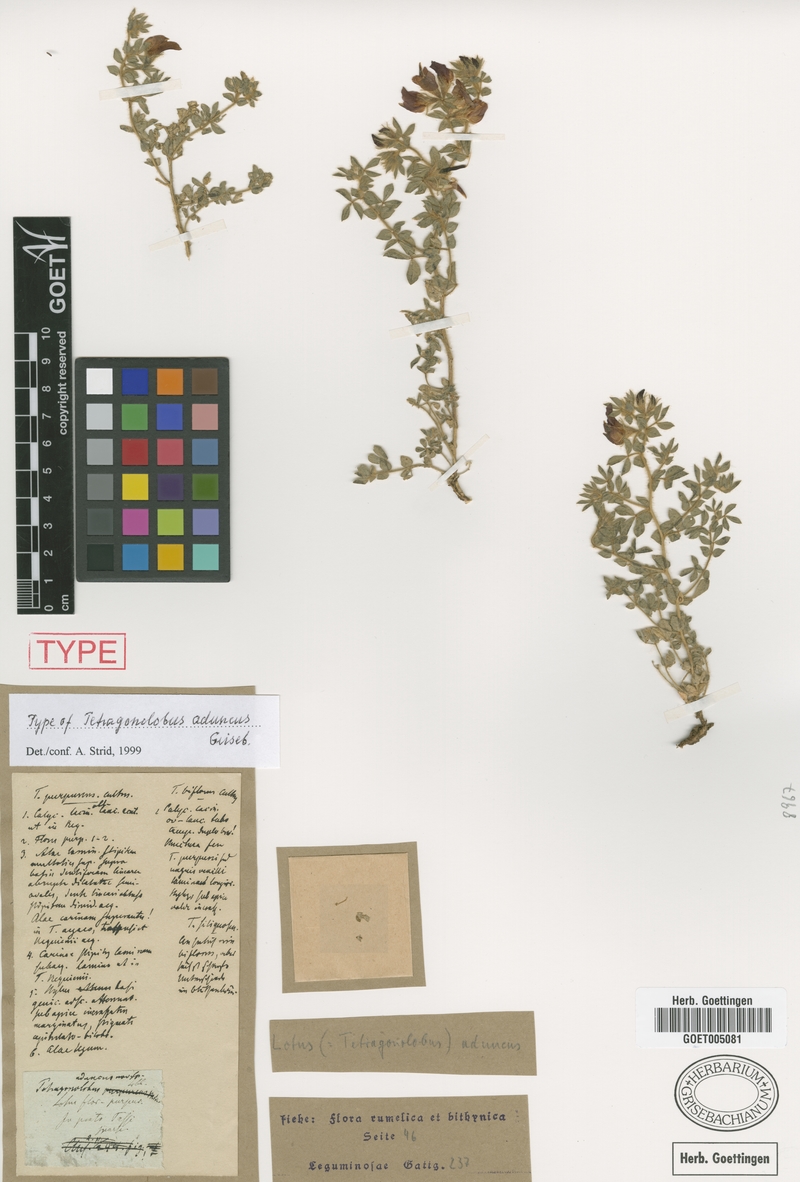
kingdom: Plantae
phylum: Tracheophyta
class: Magnoliopsida
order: Fabales
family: Fabaceae
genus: Lotus
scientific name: Lotus aduncus
